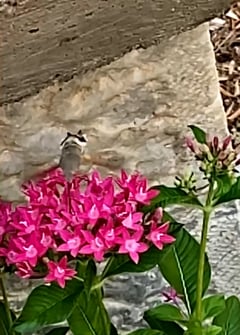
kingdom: Animalia
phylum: Arthropoda
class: Insecta
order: Lepidoptera
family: Sphingidae
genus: Macroglossum
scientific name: Macroglossum stellatarum
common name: Humming-bird hawk-moth
